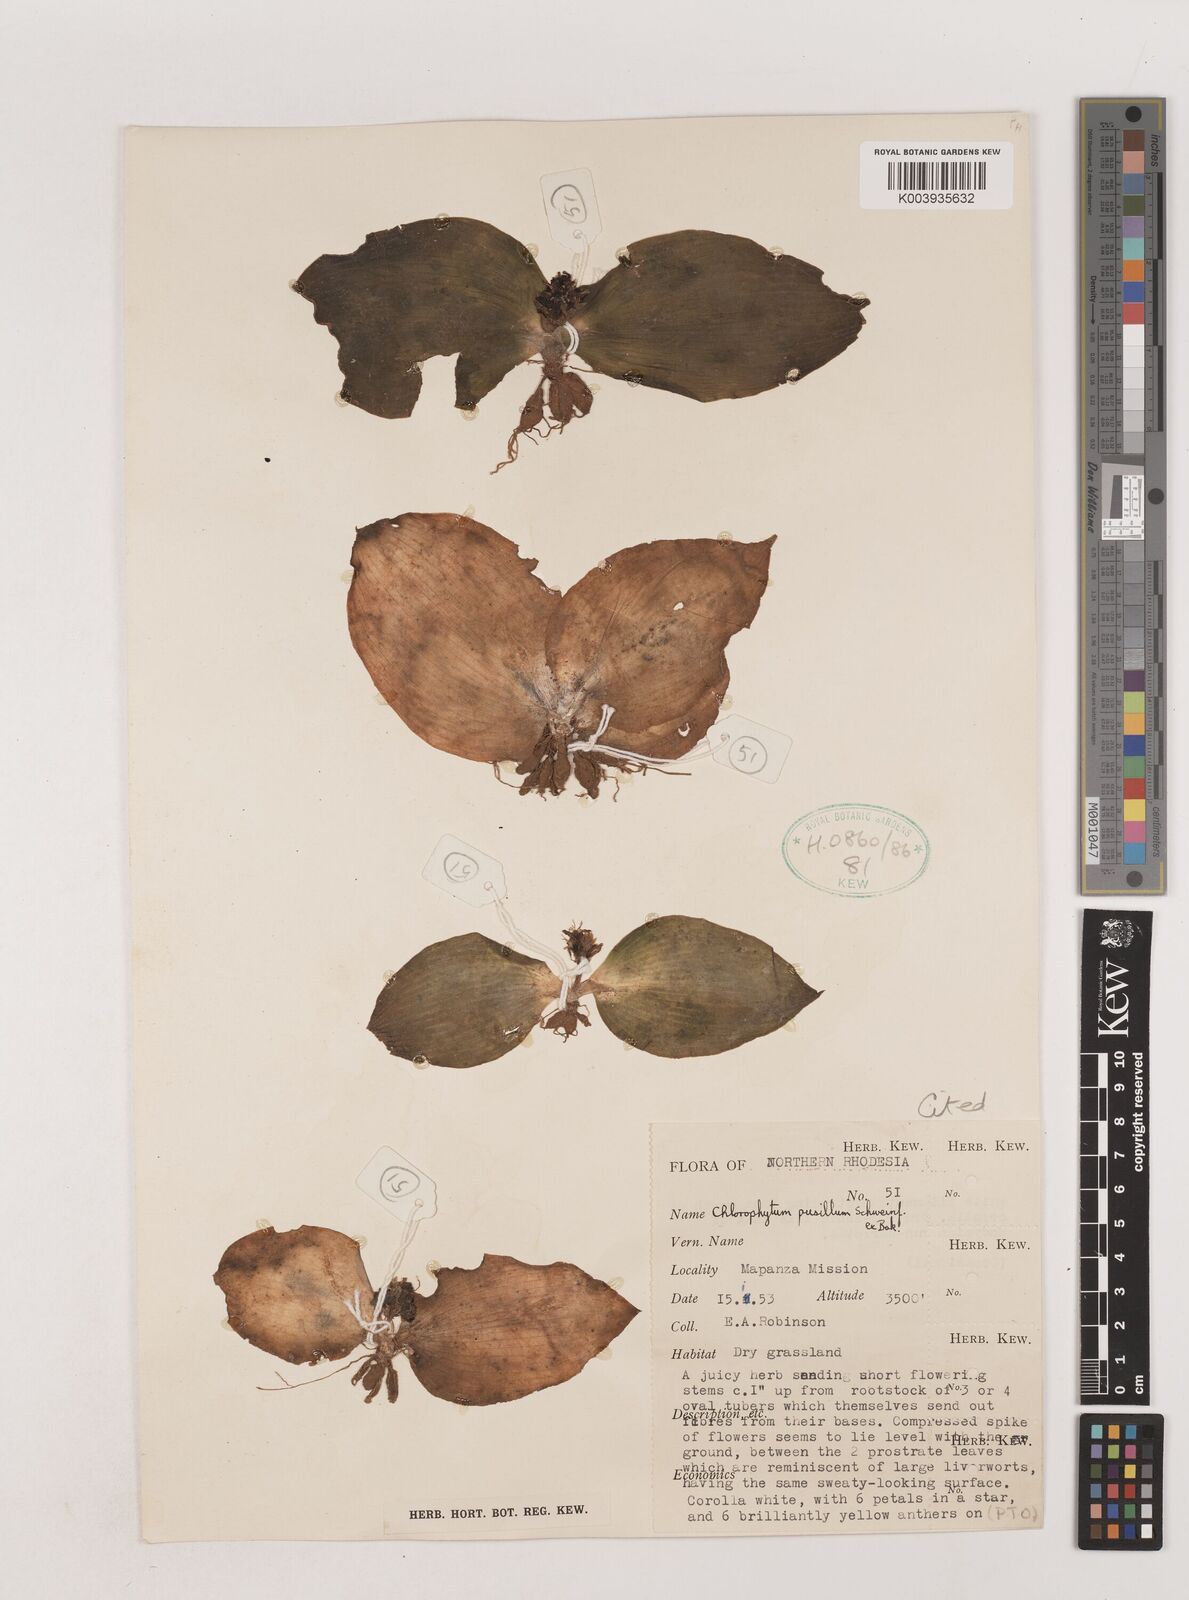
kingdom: Plantae
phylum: Tracheophyta
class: Liliopsida
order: Asparagales
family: Asparagaceae
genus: Chlorophytum
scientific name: Chlorophytum pusillum
